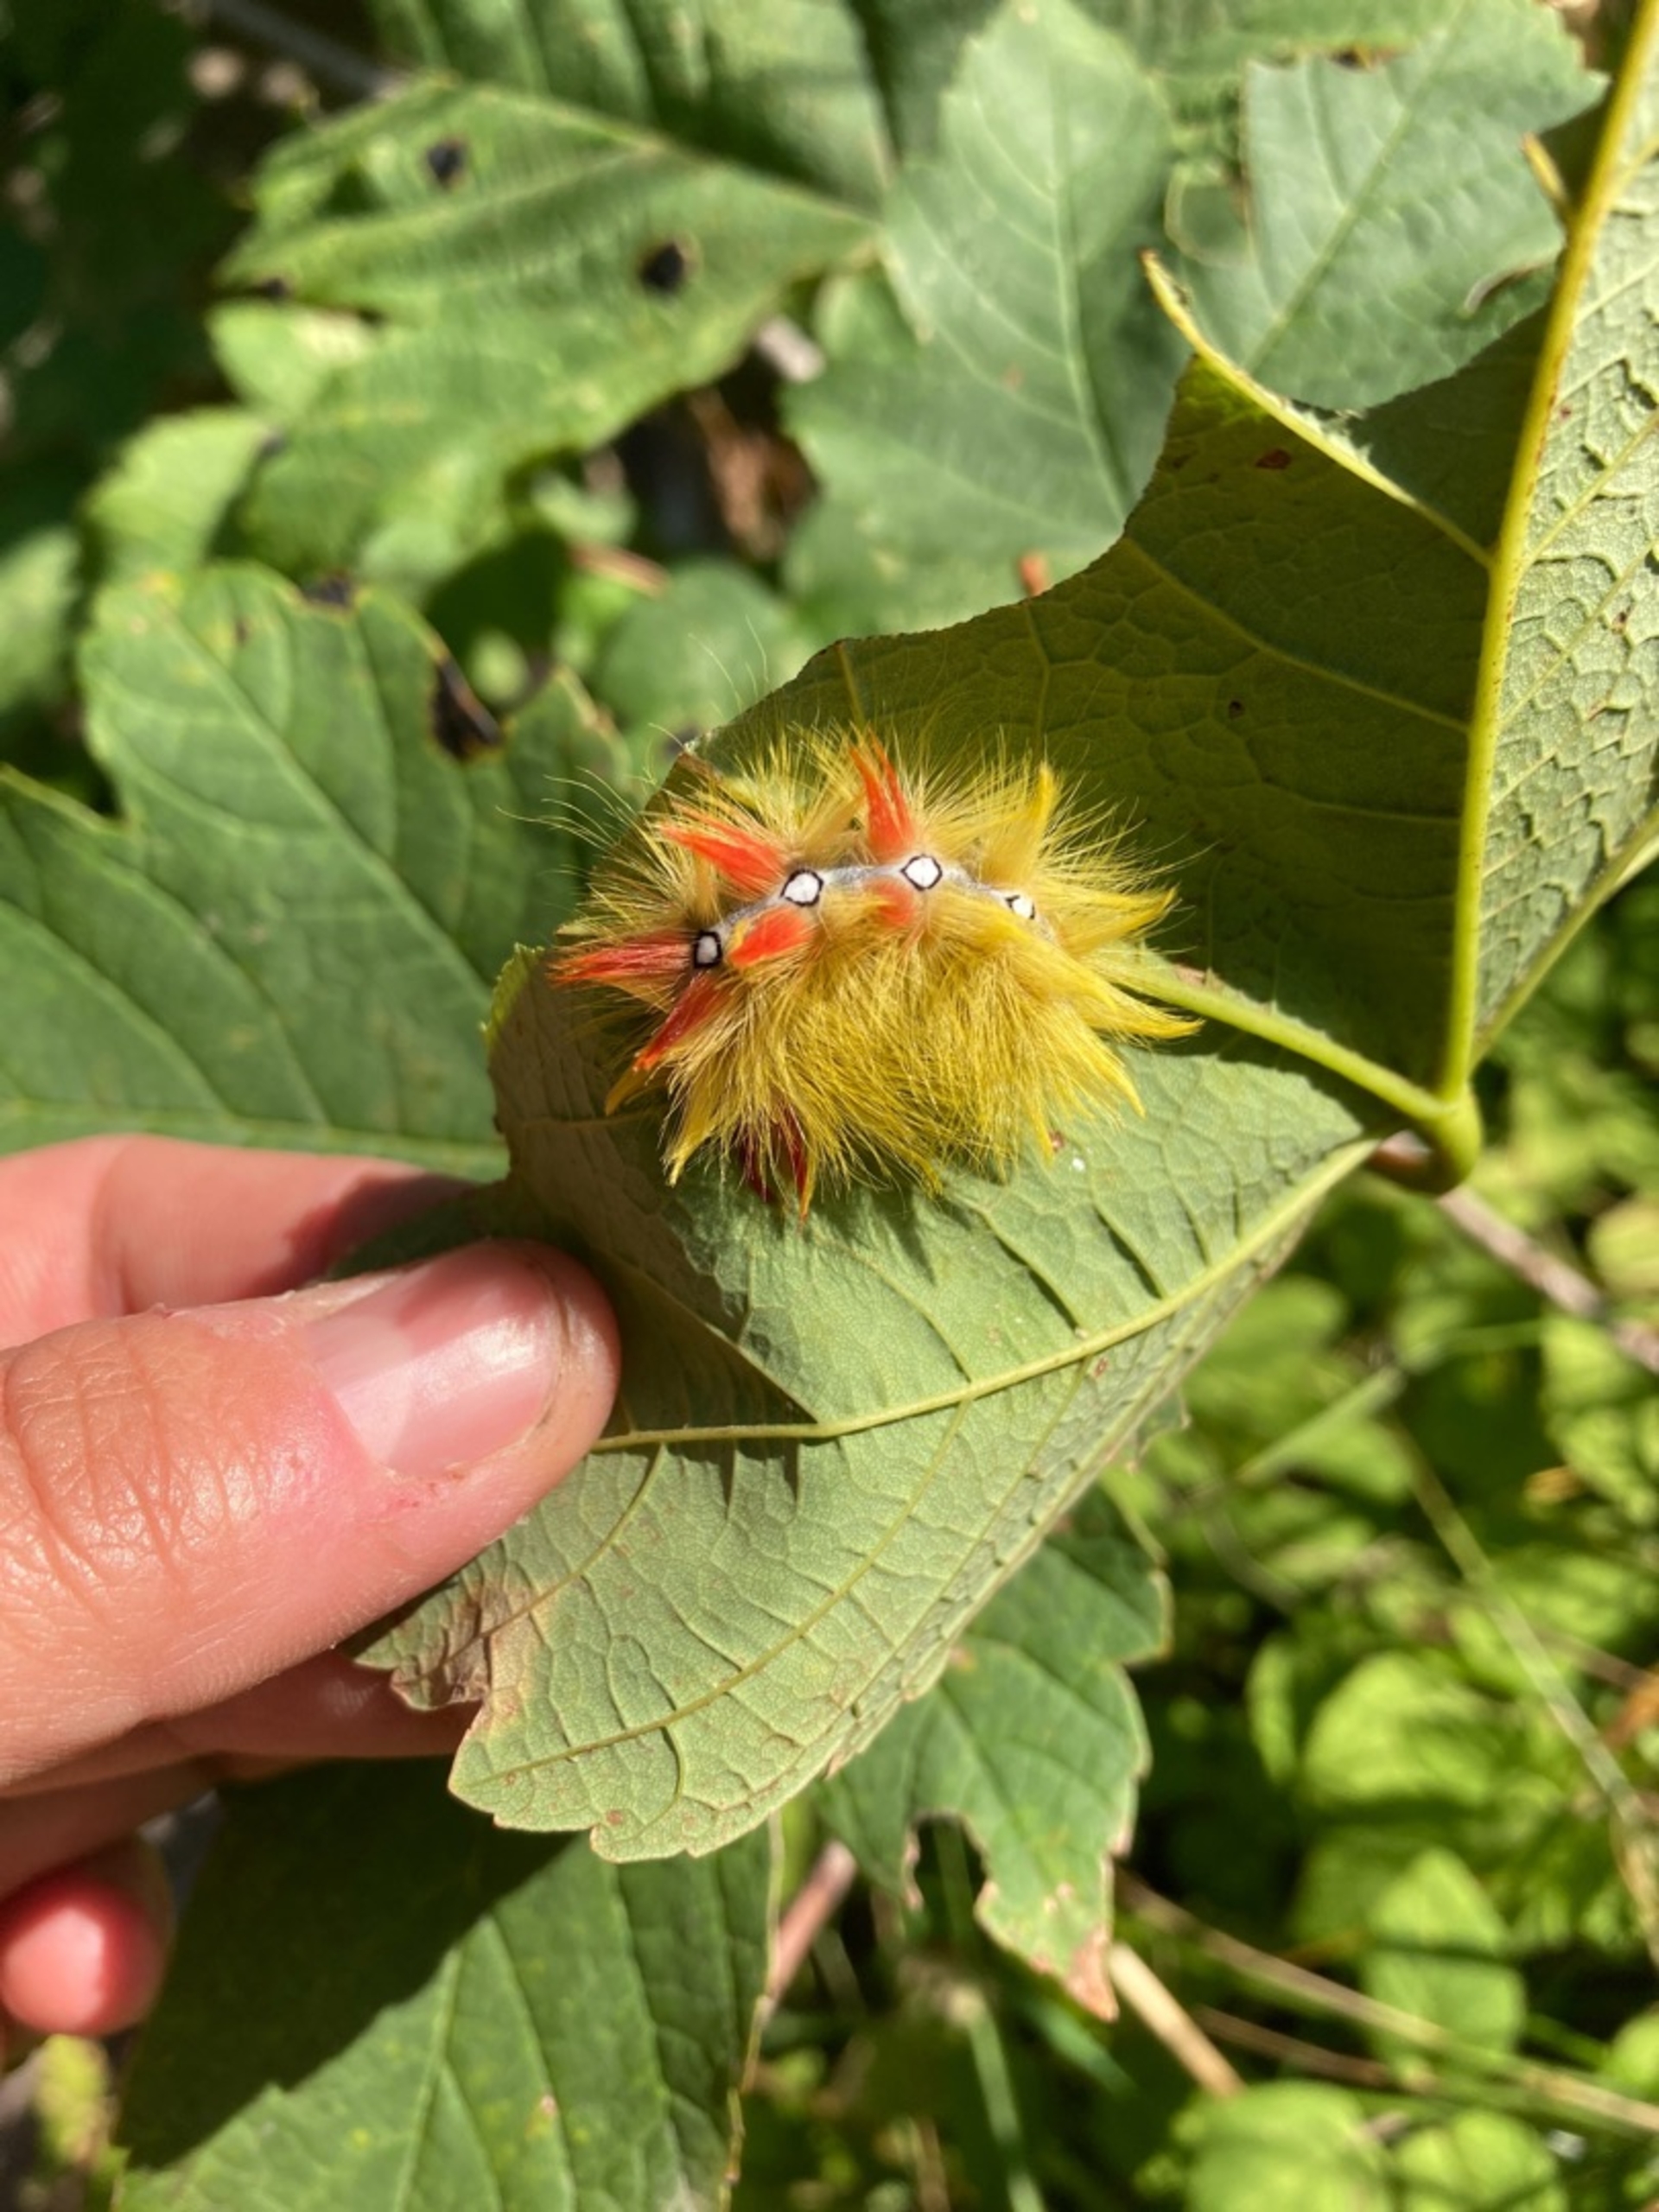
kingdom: Animalia
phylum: Arthropoda
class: Insecta
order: Lepidoptera
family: Noctuidae
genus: Acronicta
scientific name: Acronicta aceris
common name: Ahornugle
